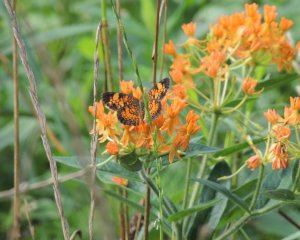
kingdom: Animalia
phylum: Arthropoda
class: Insecta
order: Lepidoptera
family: Nymphalidae
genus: Phyciodes
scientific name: Phyciodes tharos
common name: Pearl Crescent
